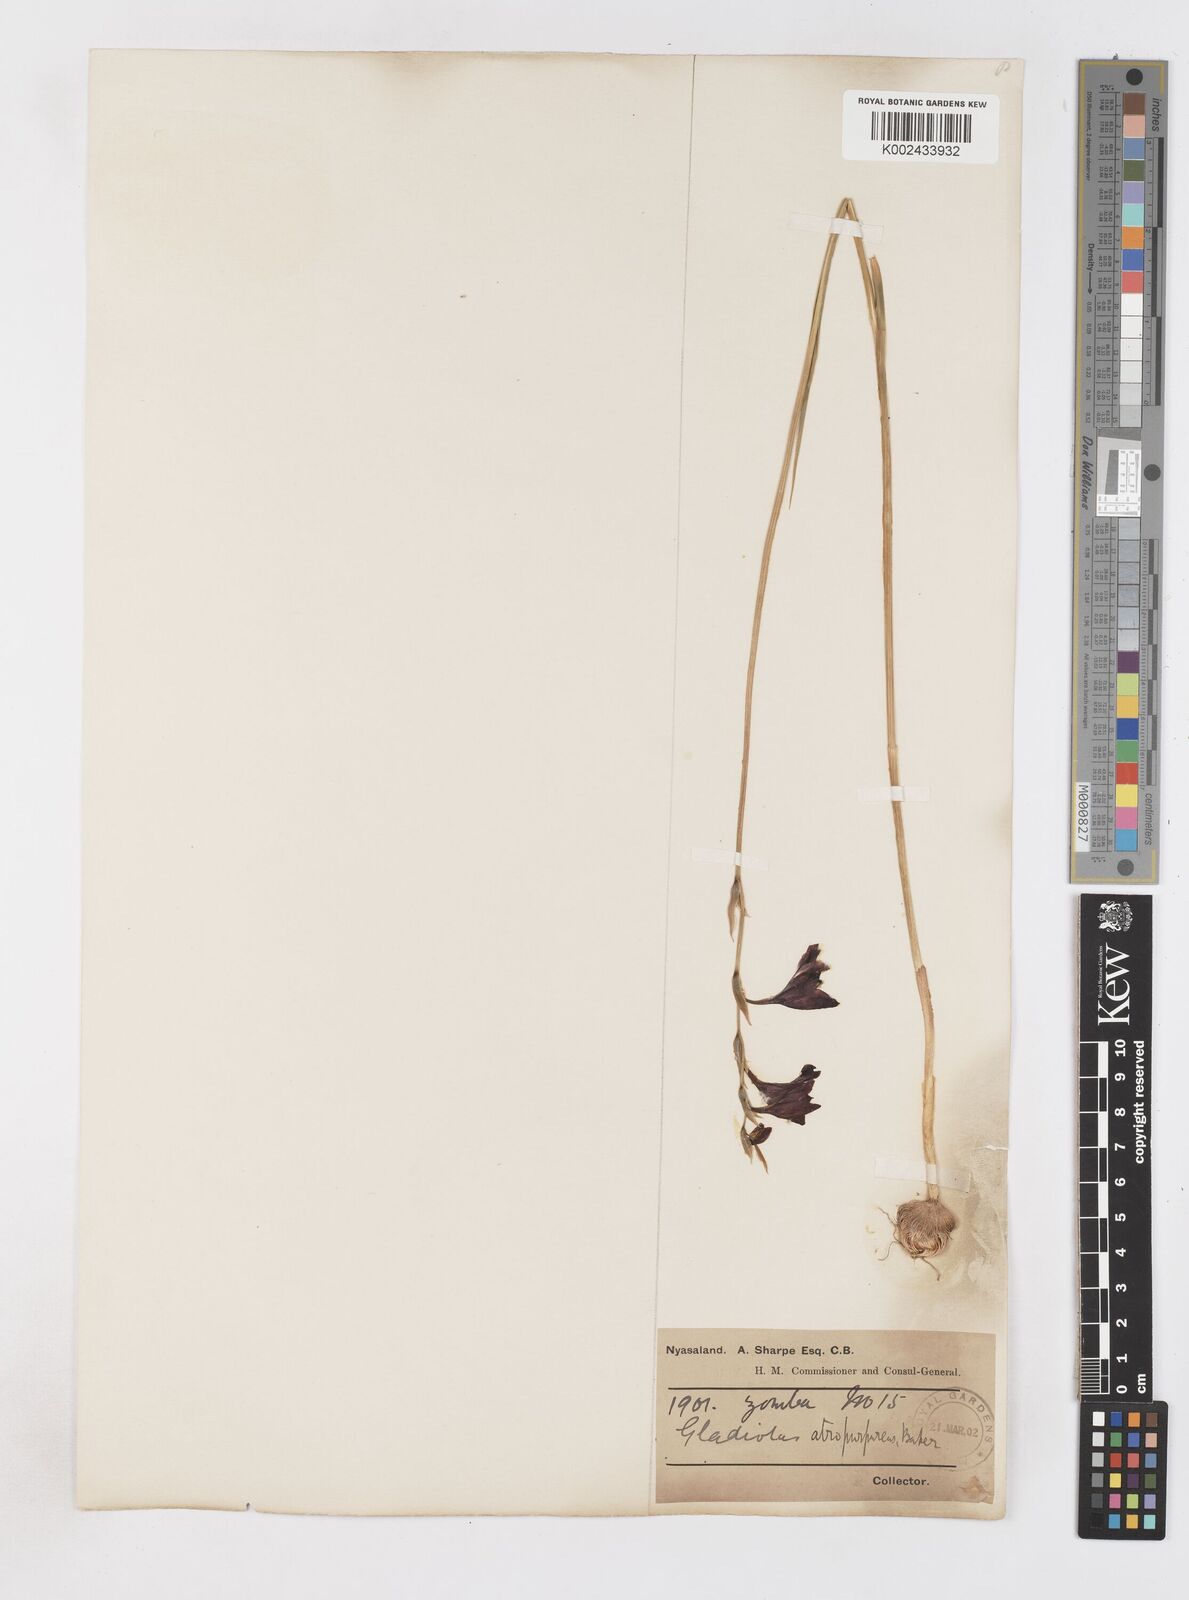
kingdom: Plantae
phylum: Tracheophyta
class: Liliopsida
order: Asparagales
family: Iridaceae
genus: Gladiolus
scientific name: Gladiolus atropurpureus
